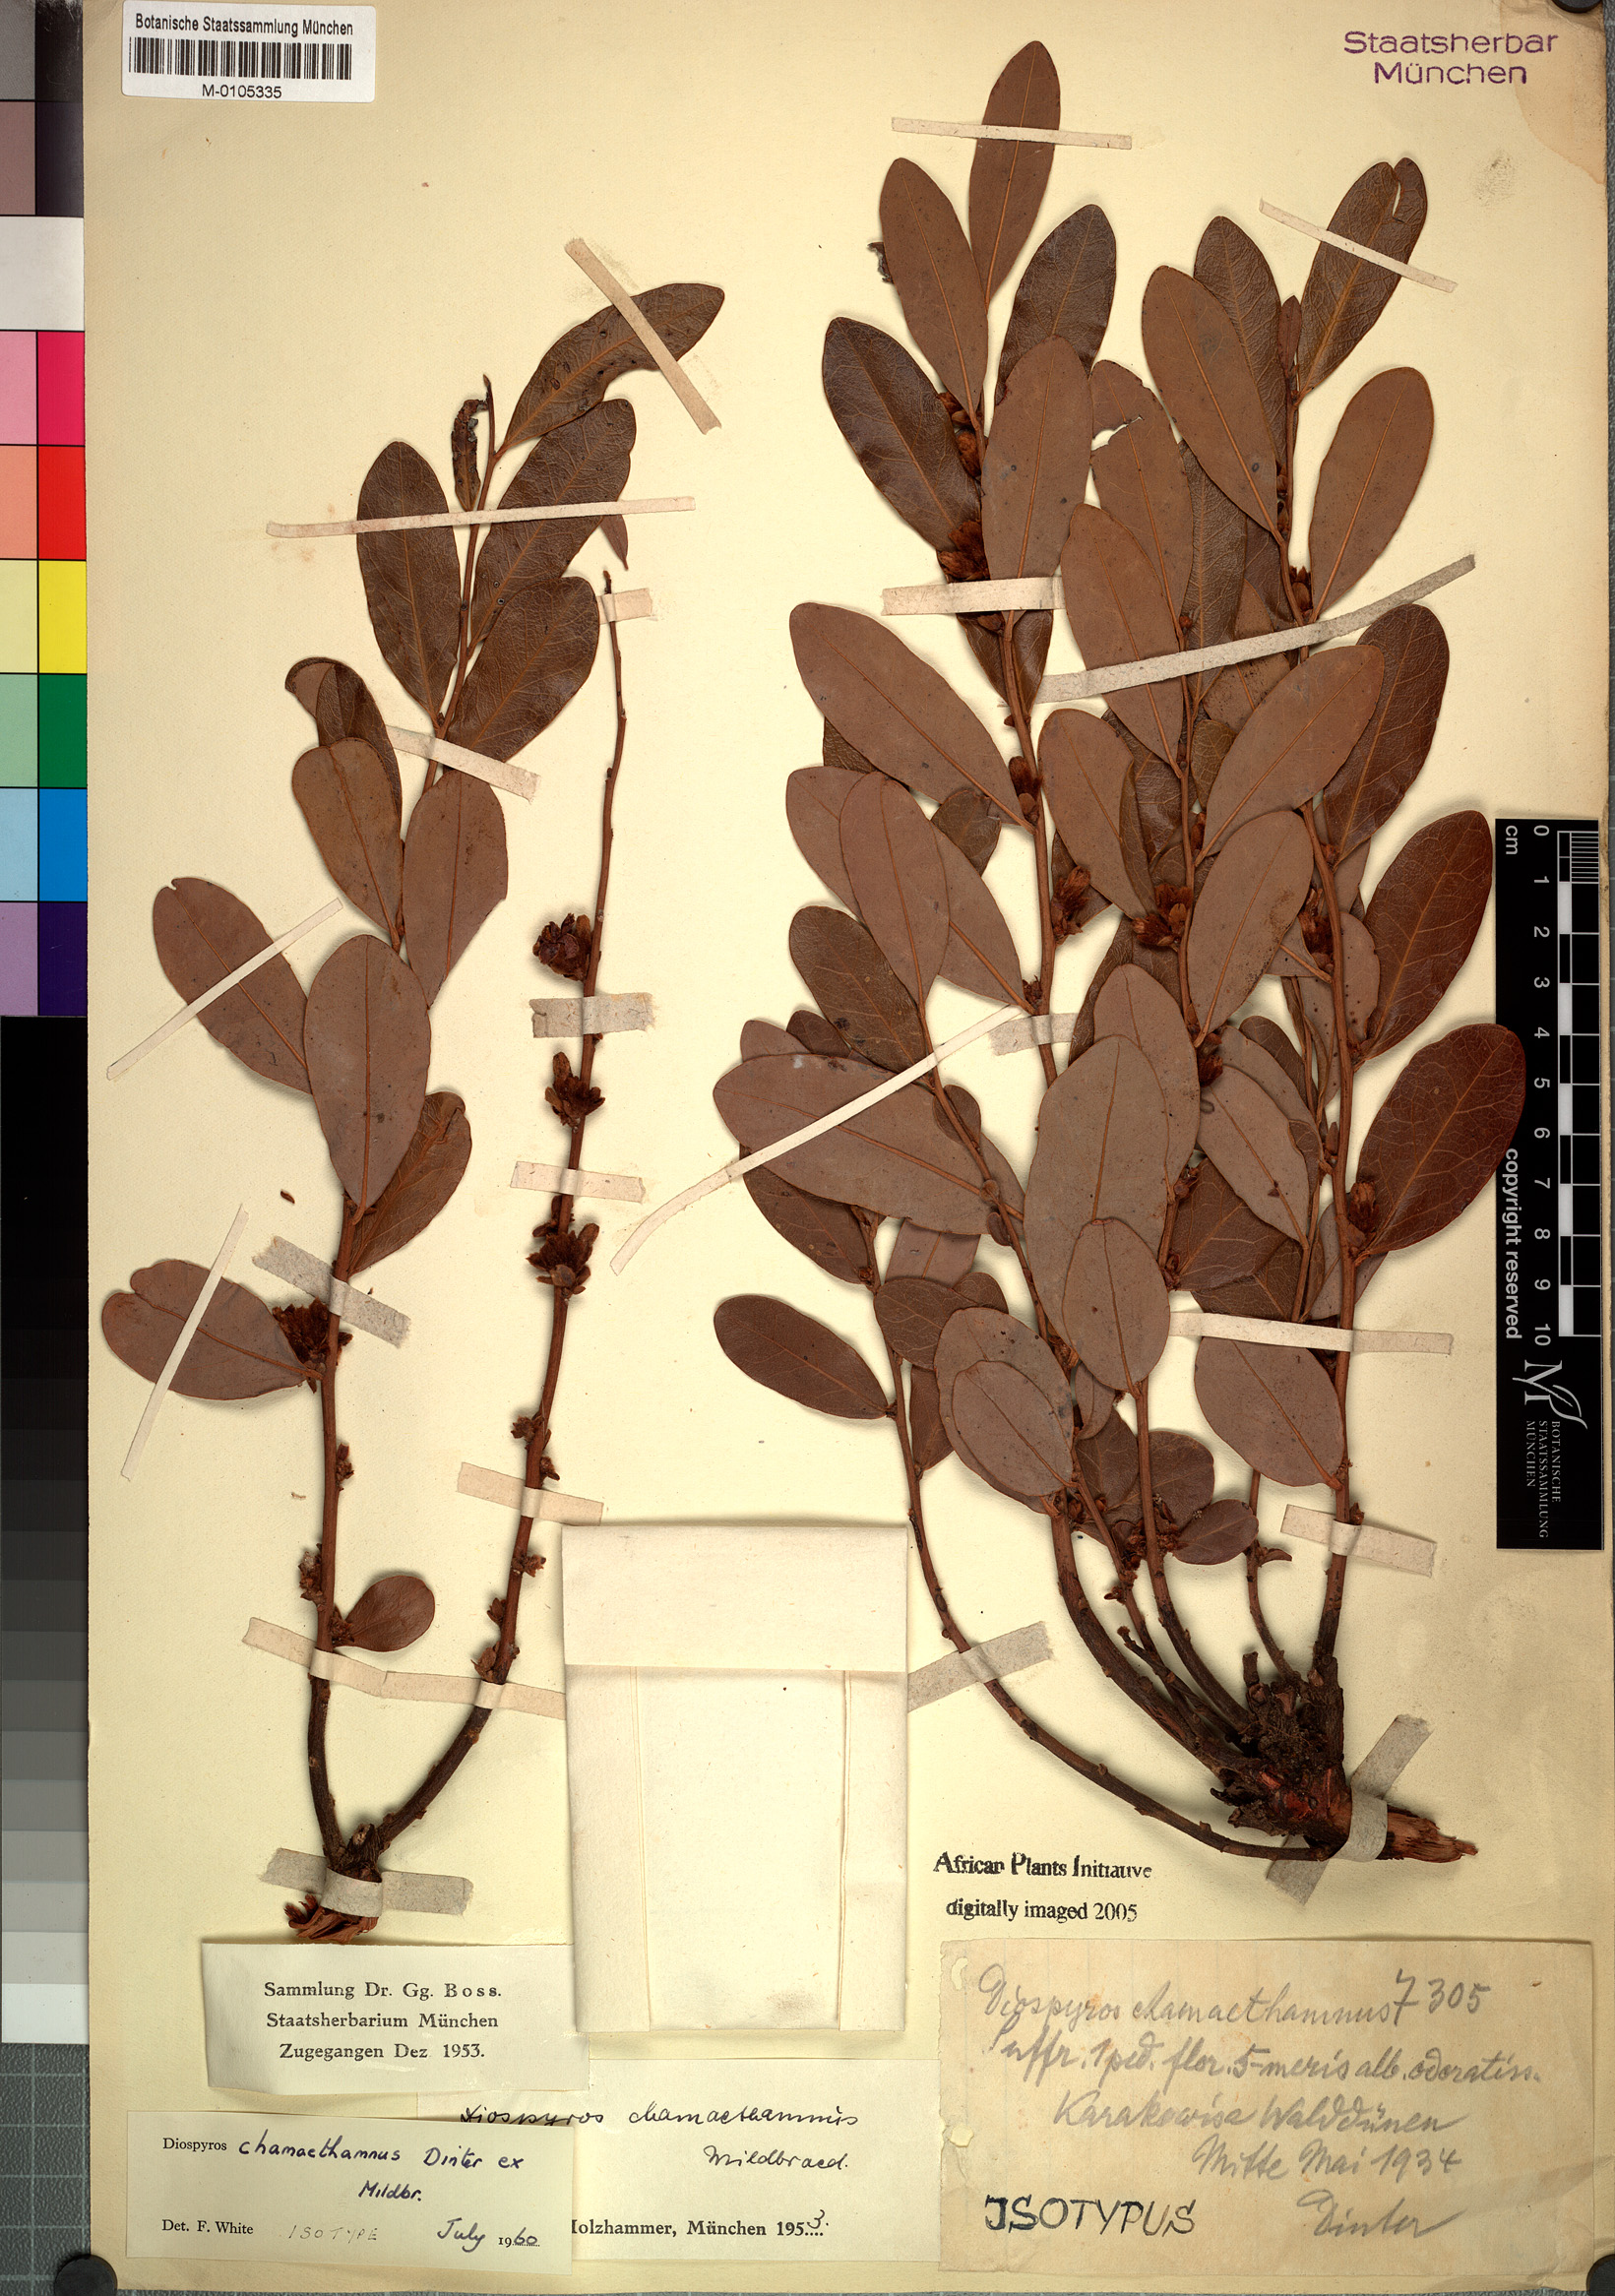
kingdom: Plantae
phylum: Tracheophyta
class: Magnoliopsida
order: Ericales
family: Ebenaceae
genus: Diospyros
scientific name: Diospyros chamaethamnus
